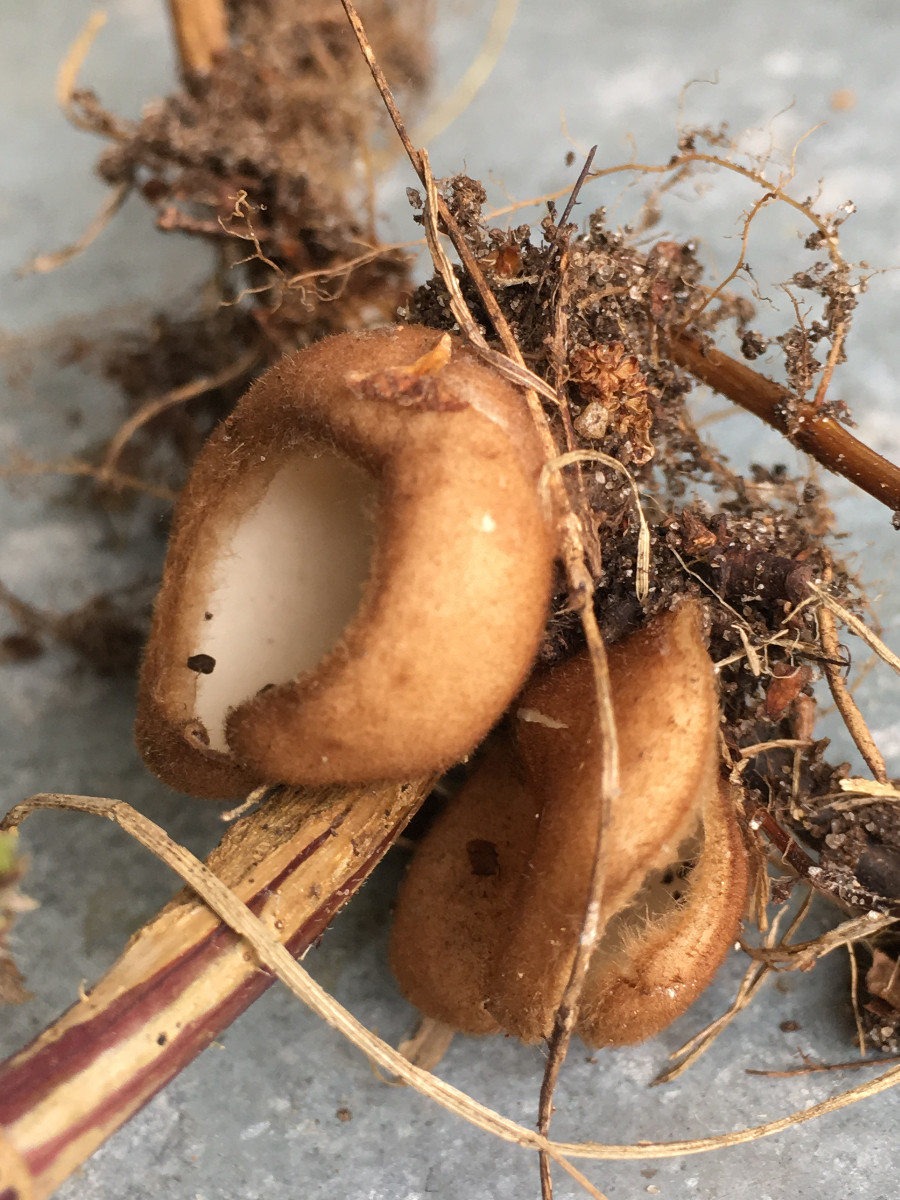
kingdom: Fungi
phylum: Ascomycota
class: Pezizomycetes
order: Pezizales
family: Pyronemataceae
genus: Humaria
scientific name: Humaria hemisphaerica
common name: halvkugleformet børstebæger
